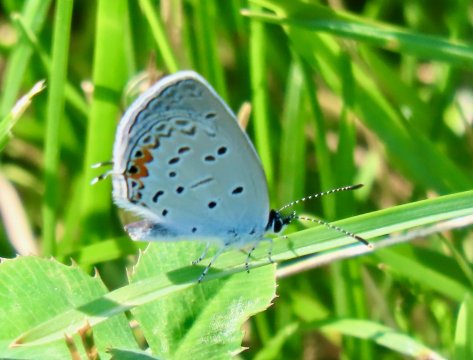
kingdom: Animalia
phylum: Arthropoda
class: Insecta
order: Lepidoptera
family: Lycaenidae
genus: Elkalyce
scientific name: Elkalyce comyntas
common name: Eastern Tailed-Blue
